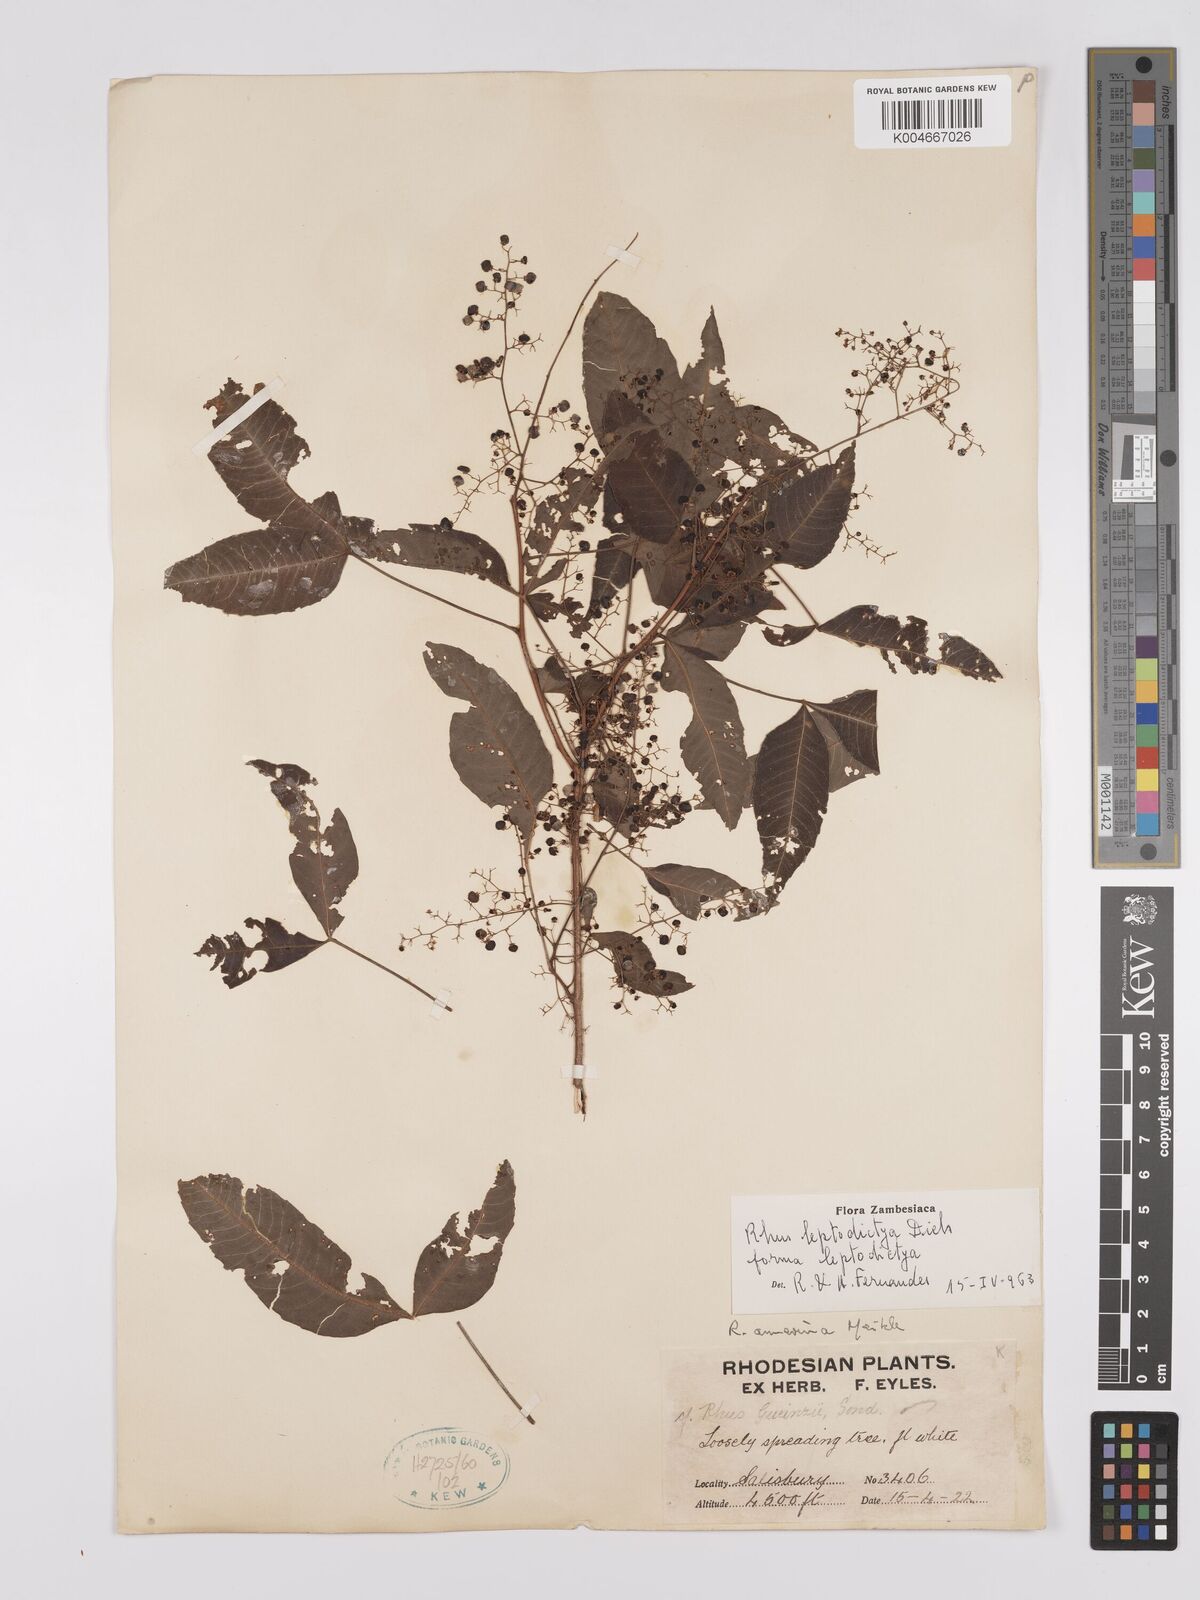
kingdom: Plantae
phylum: Tracheophyta
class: Magnoliopsida
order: Sapindales
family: Anacardiaceae
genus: Searsia
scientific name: Searsia leptodictya
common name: Mountain karee
